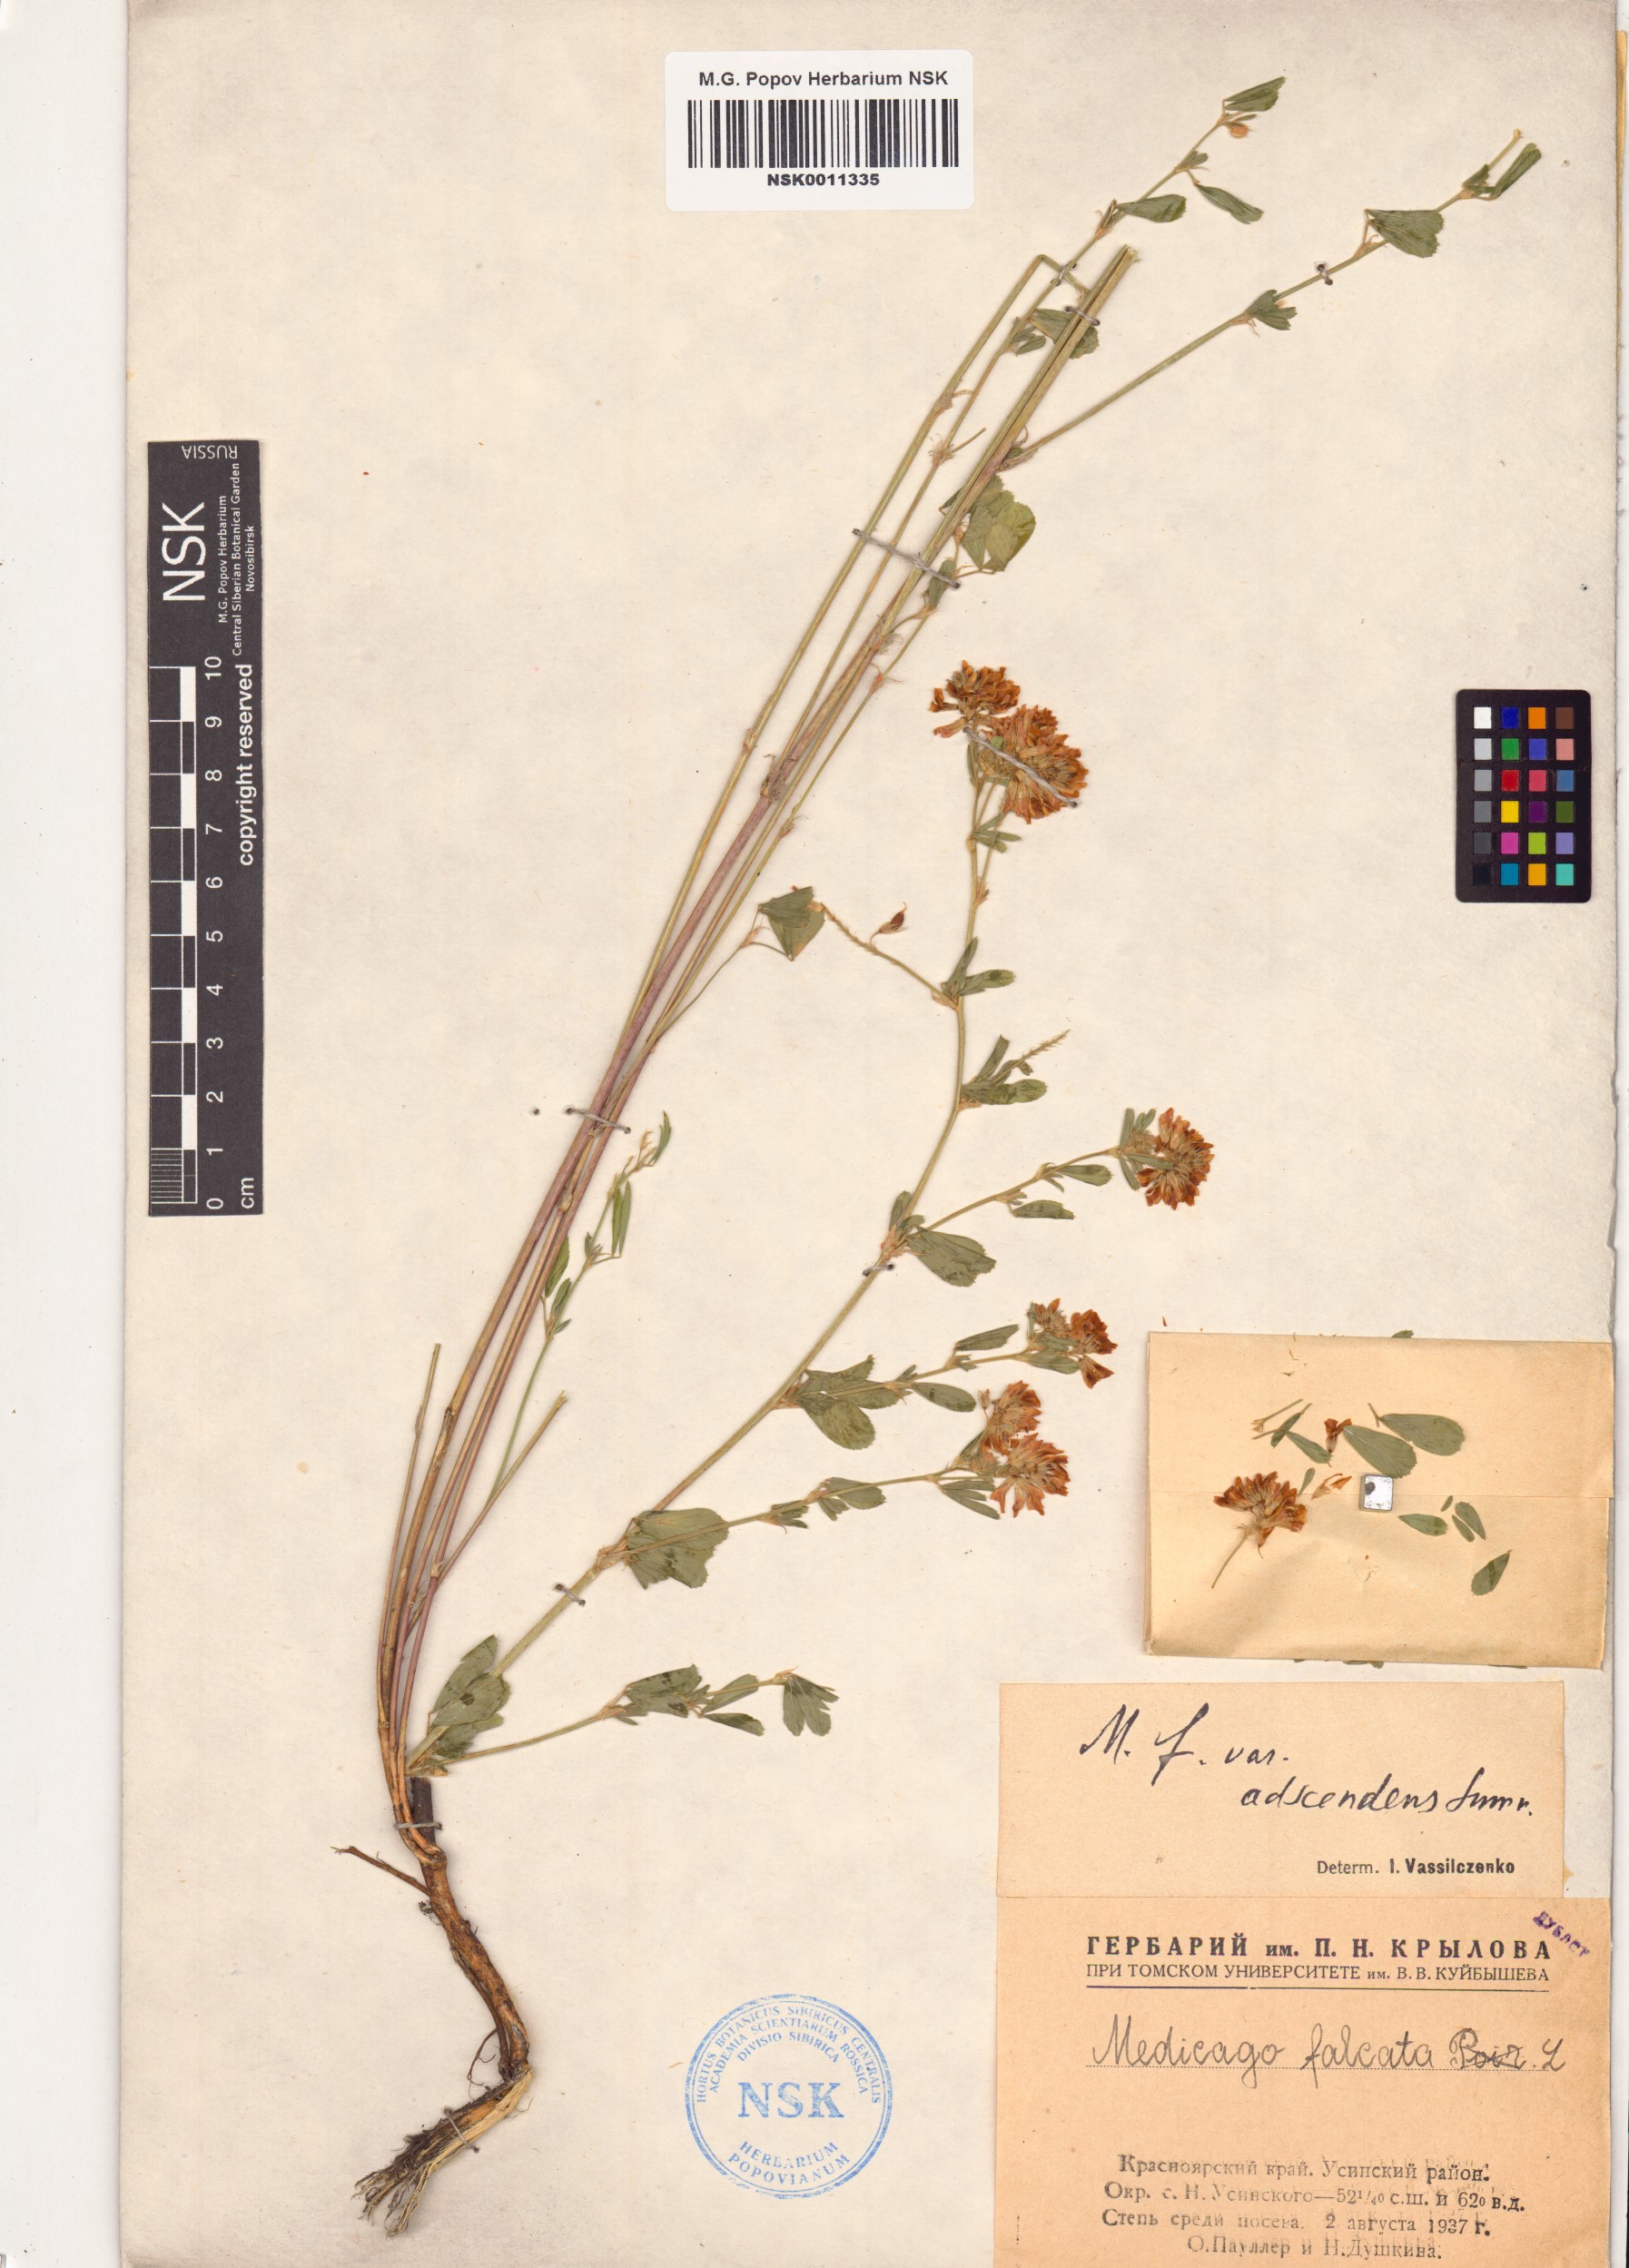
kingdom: Plantae
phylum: Tracheophyta
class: Magnoliopsida
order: Fabales
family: Fabaceae
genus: Medicago
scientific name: Medicago falcata
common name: Sickle medick
